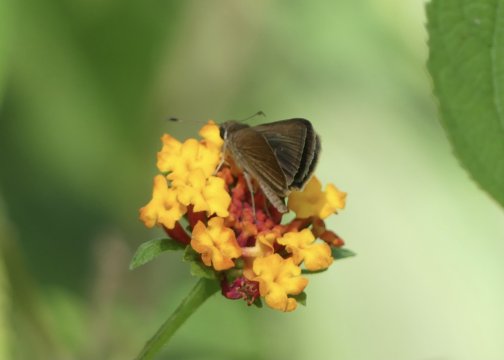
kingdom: Animalia
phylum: Arthropoda
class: Insecta
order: Lepidoptera
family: Hesperiidae
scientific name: Hesperiidae
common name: Skippers
